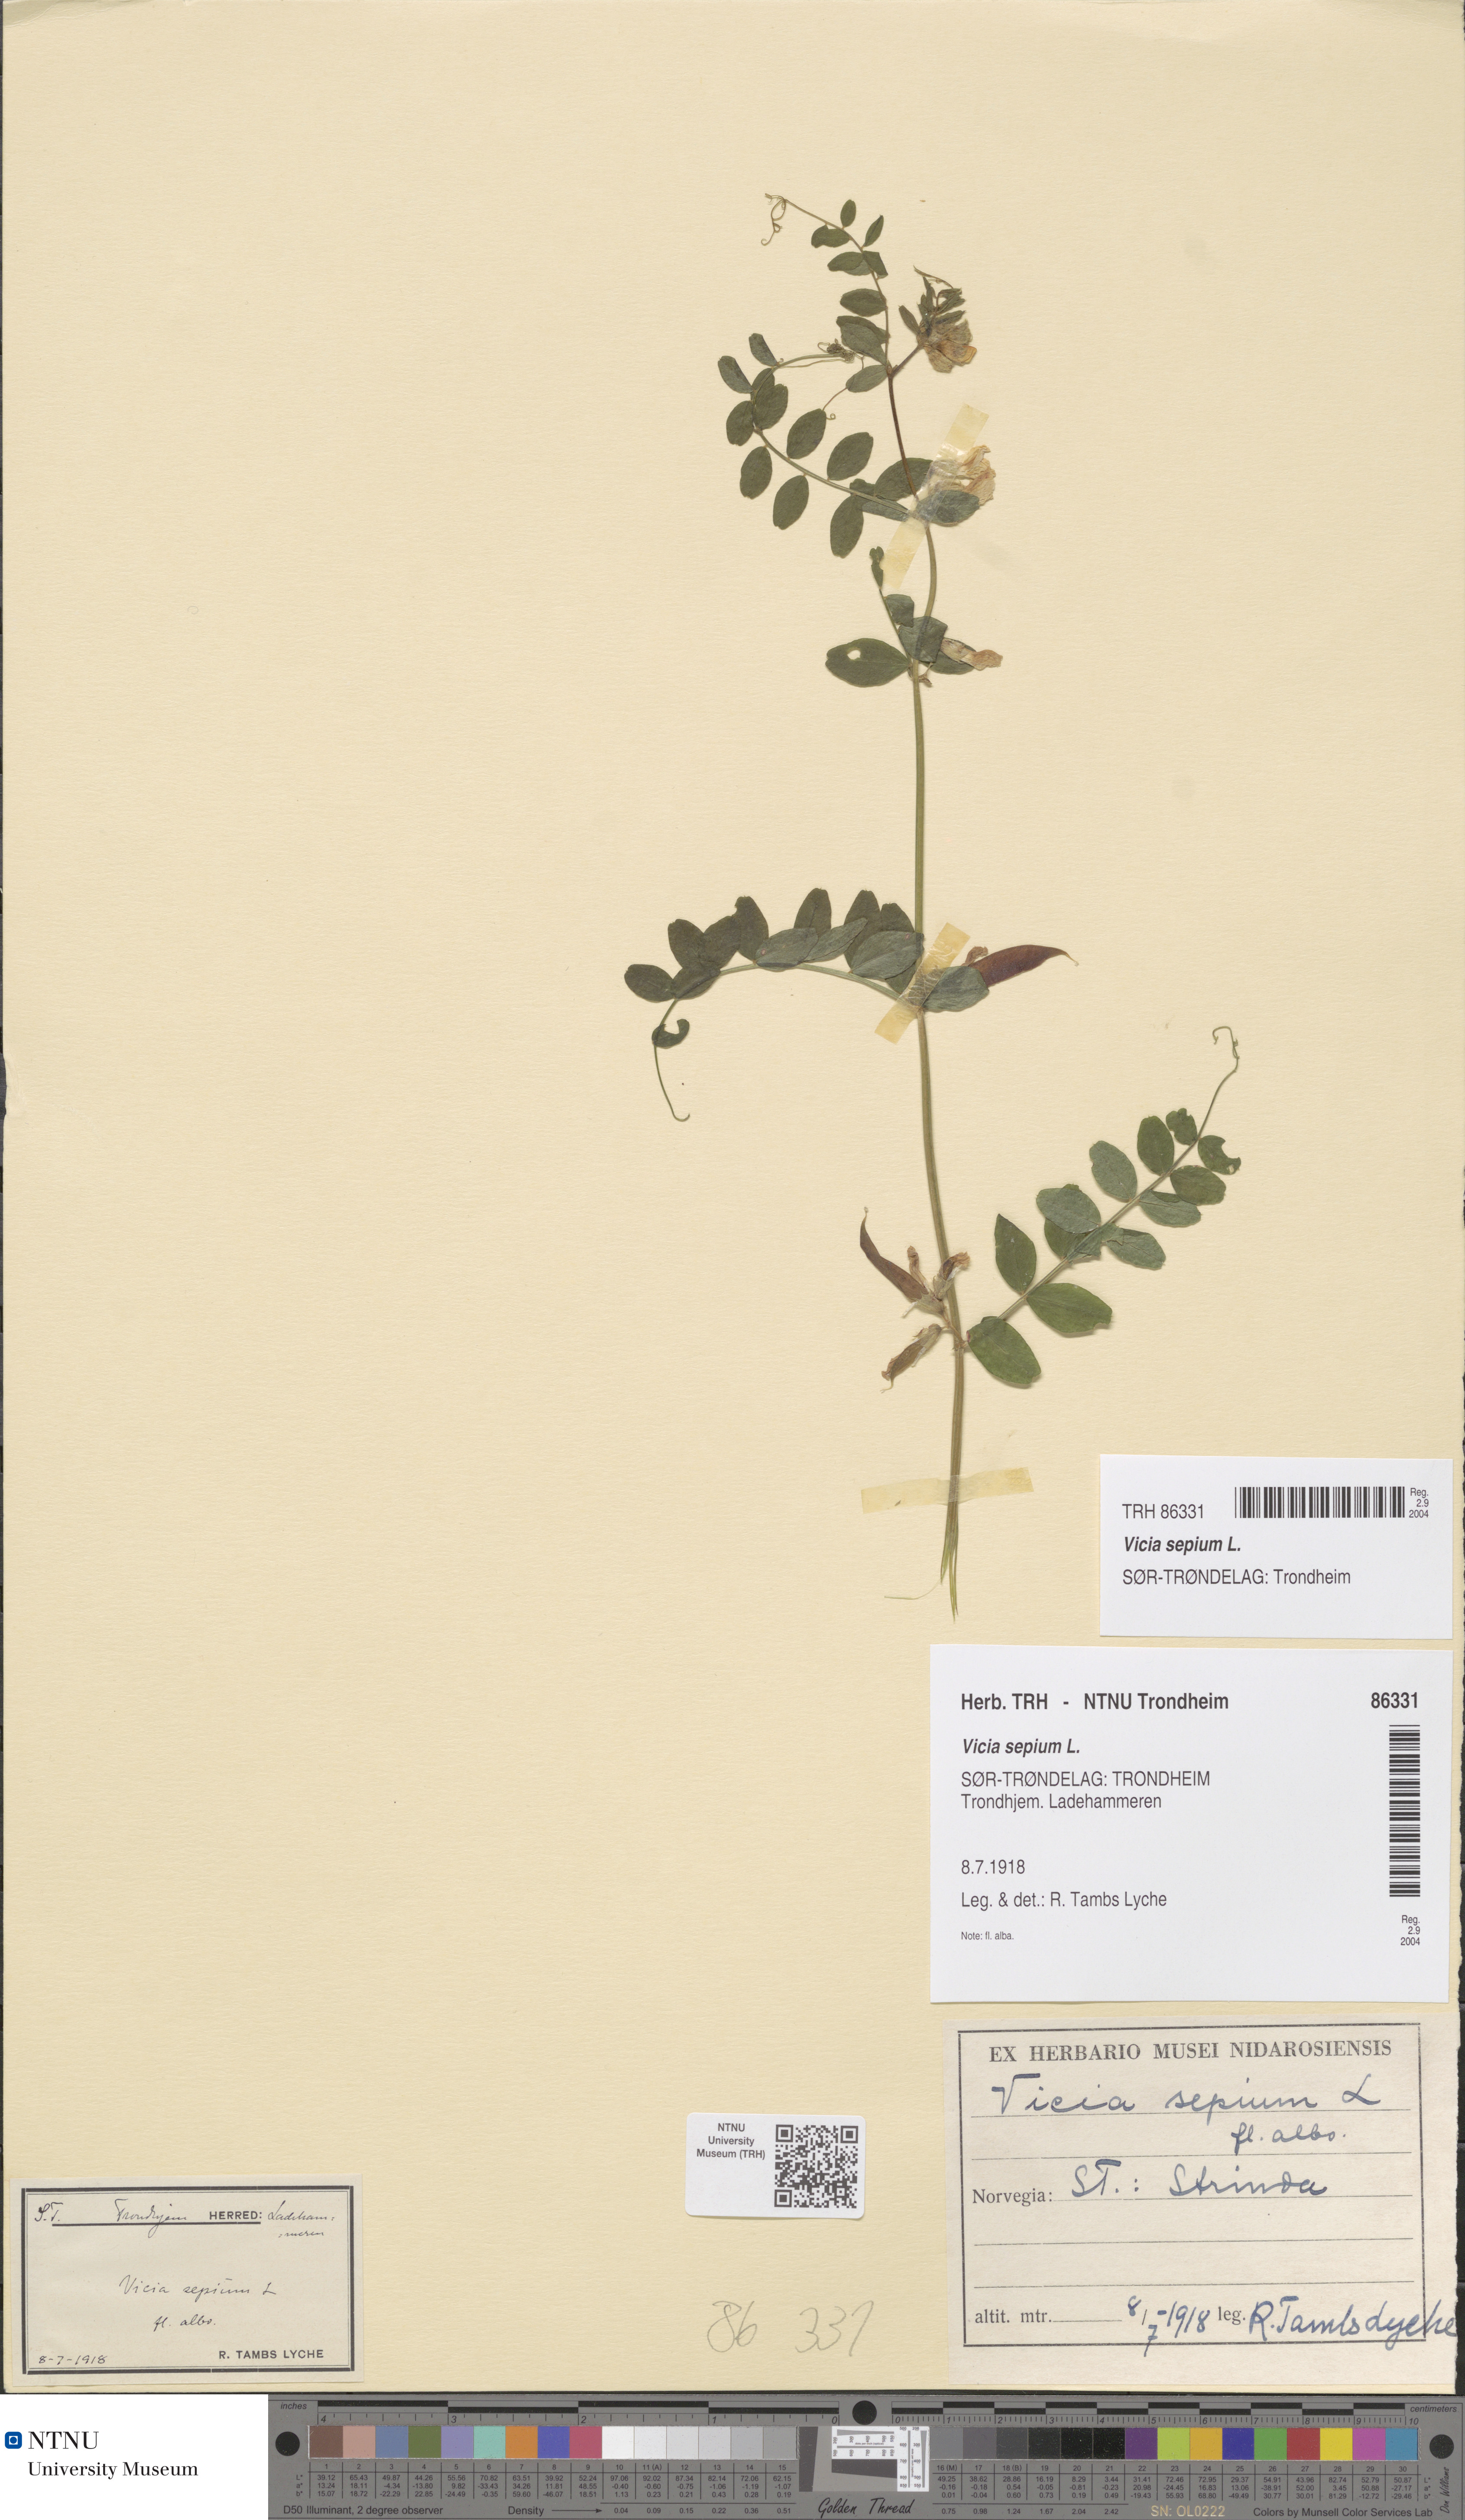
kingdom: Plantae
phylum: Tracheophyta
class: Magnoliopsida
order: Fabales
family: Fabaceae
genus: Vicia
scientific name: Vicia sepium
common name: Bush vetch
